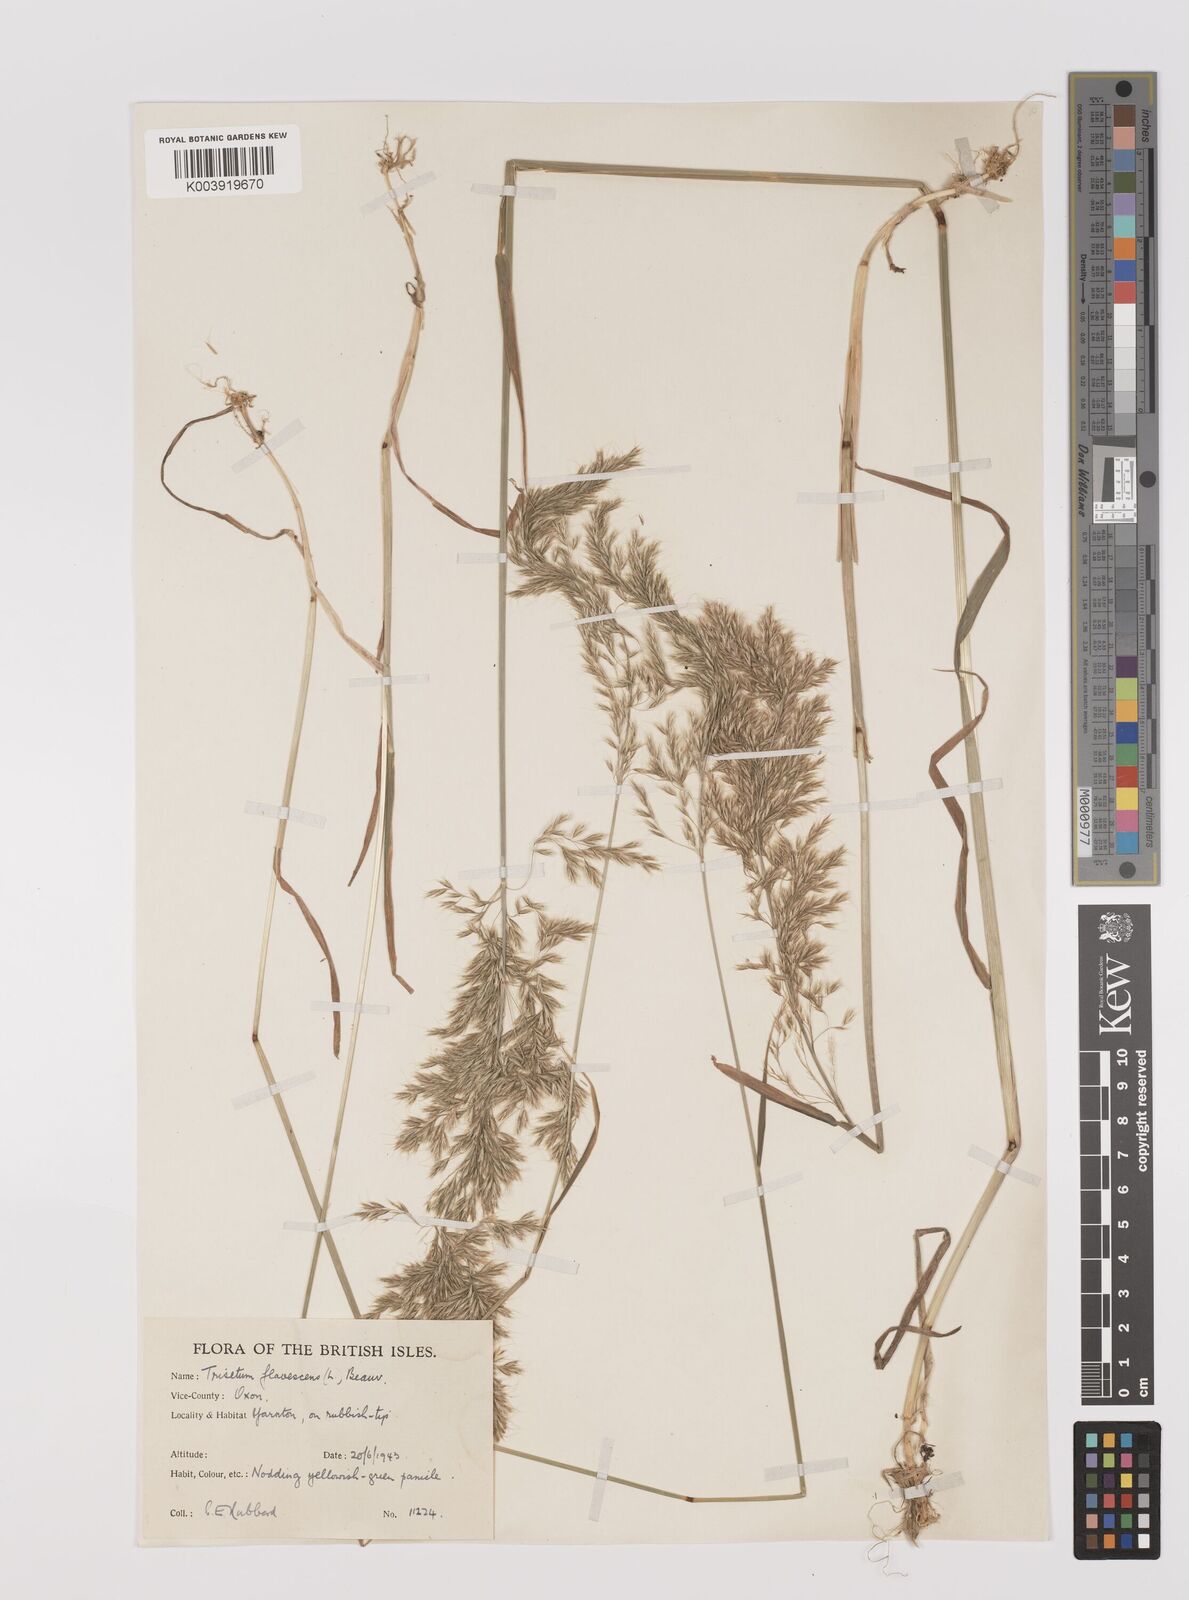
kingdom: Plantae
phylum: Tracheophyta
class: Liliopsida
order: Poales
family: Poaceae
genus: Trisetum
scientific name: Trisetum flavescens
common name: Yellow oat-grass
